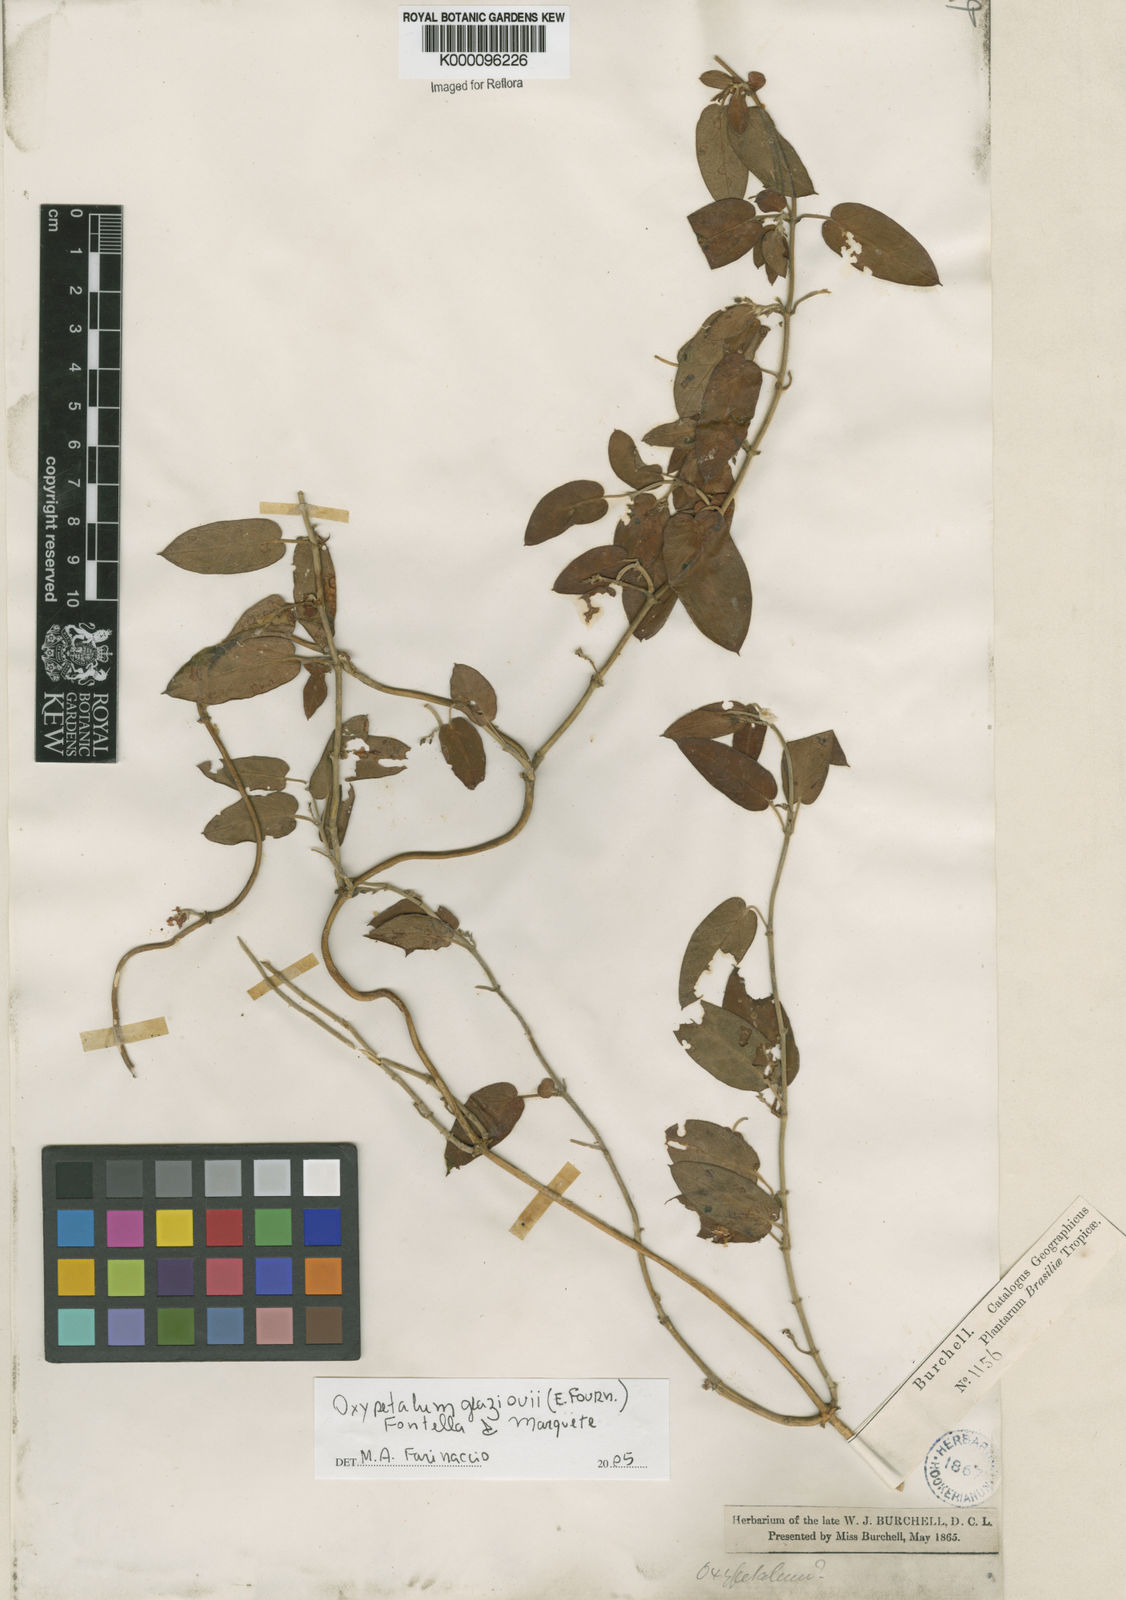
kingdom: Plantae
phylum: Tracheophyta
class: Magnoliopsida
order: Gentianales
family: Apocynaceae
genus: Oxypetalum
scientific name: Oxypetalum glaziovii
